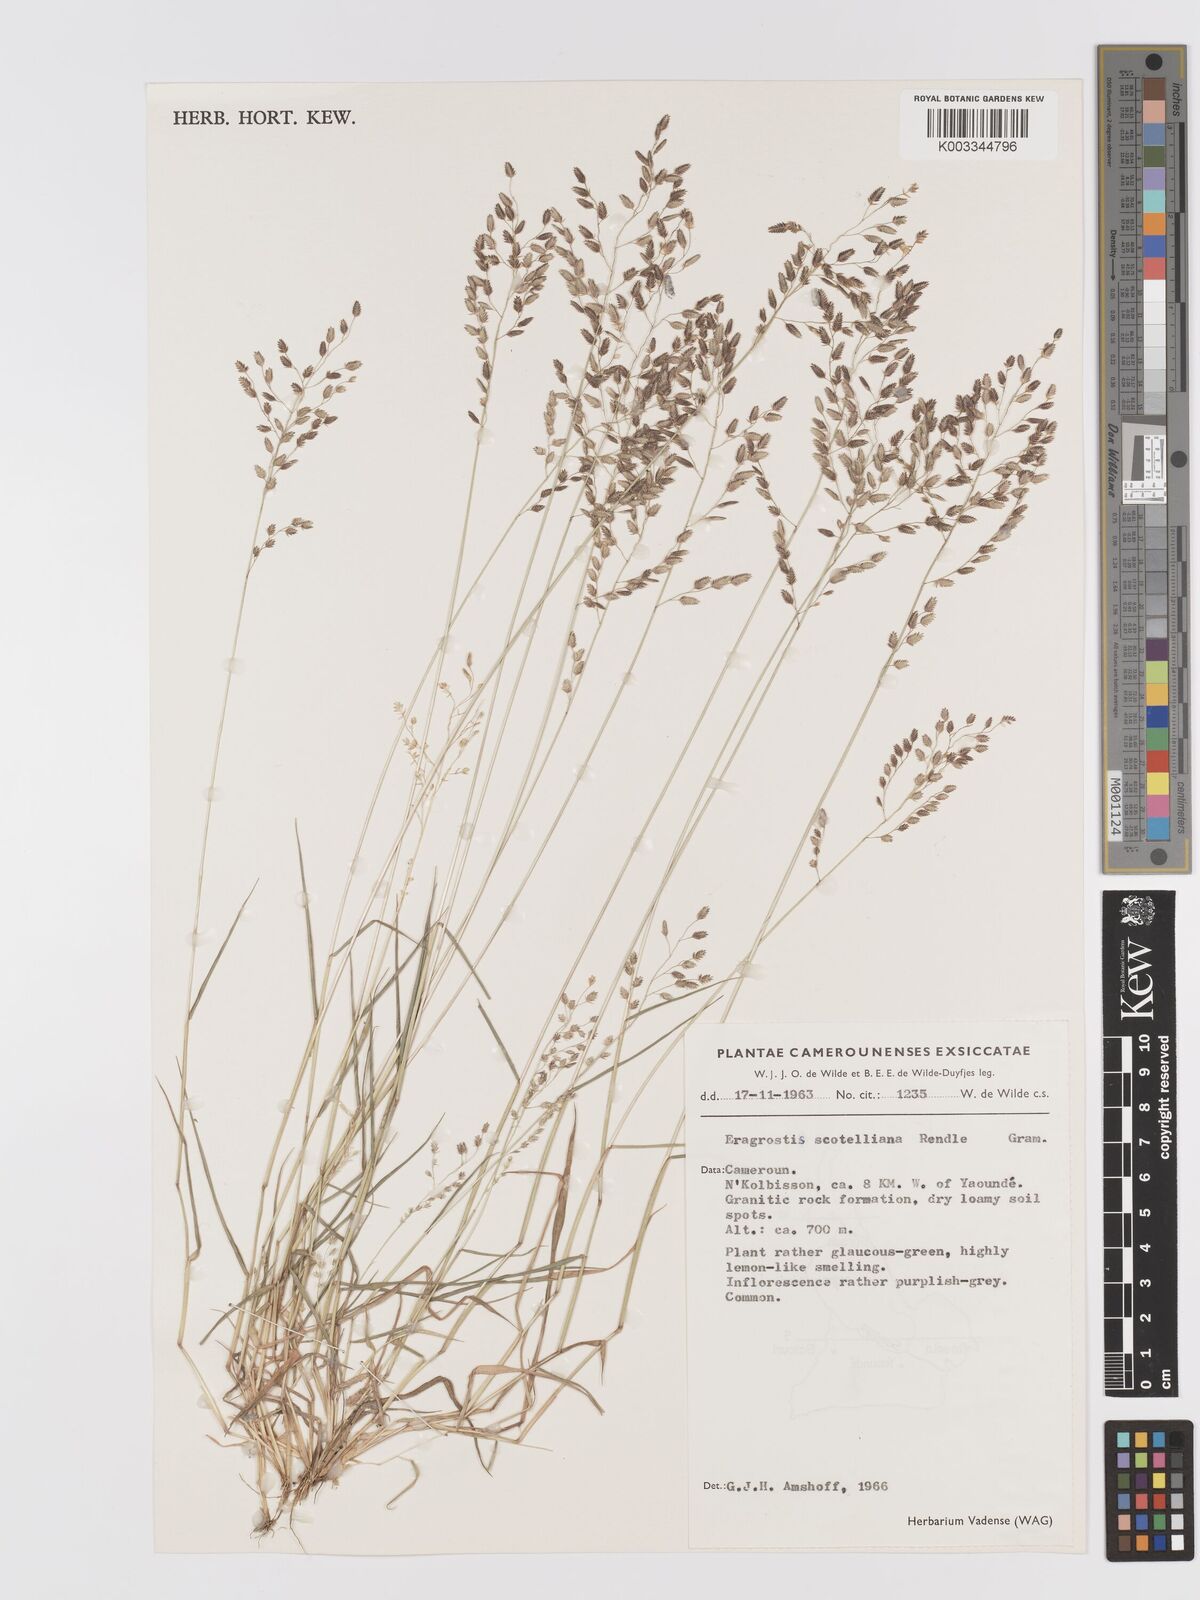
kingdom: Plantae
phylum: Tracheophyta
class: Liliopsida
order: Poales
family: Poaceae
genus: Eragrostis
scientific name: Eragrostis scotelliana
